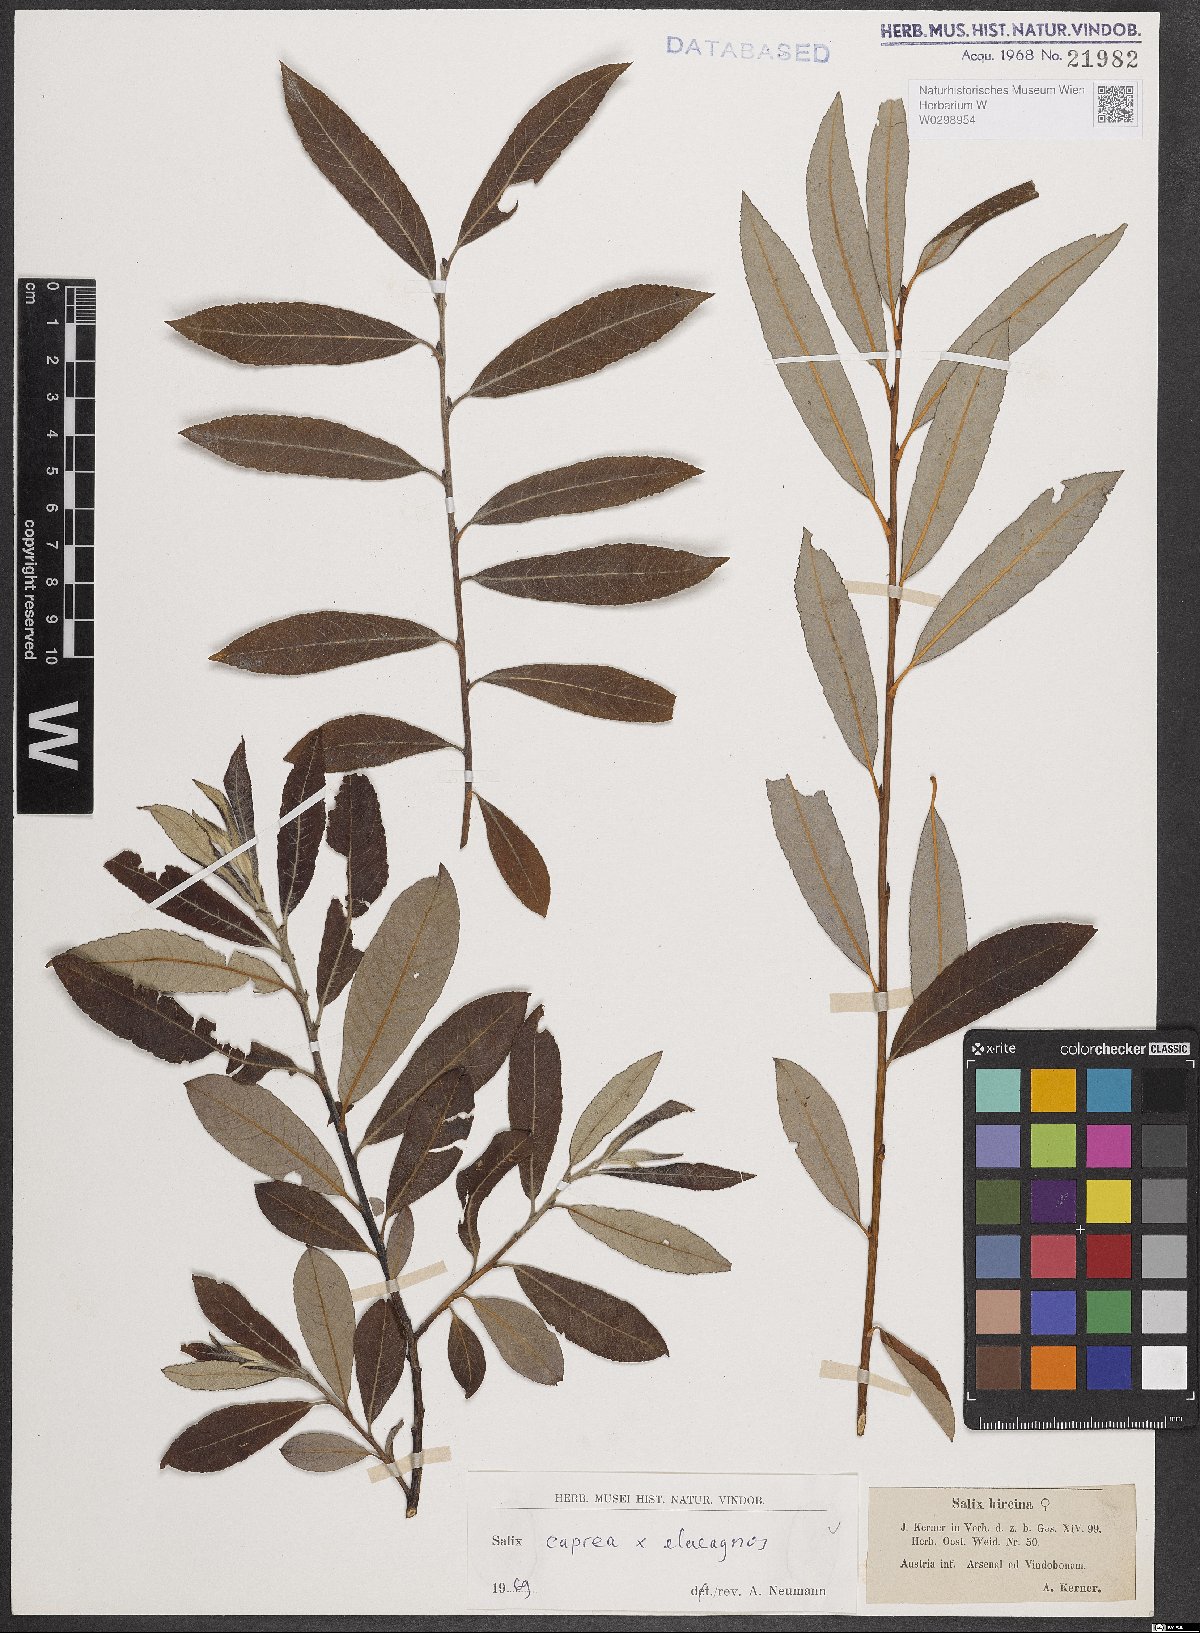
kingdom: Plantae
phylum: Tracheophyta
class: Magnoliopsida
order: Malpighiales
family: Salicaceae
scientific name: Salicaceae
